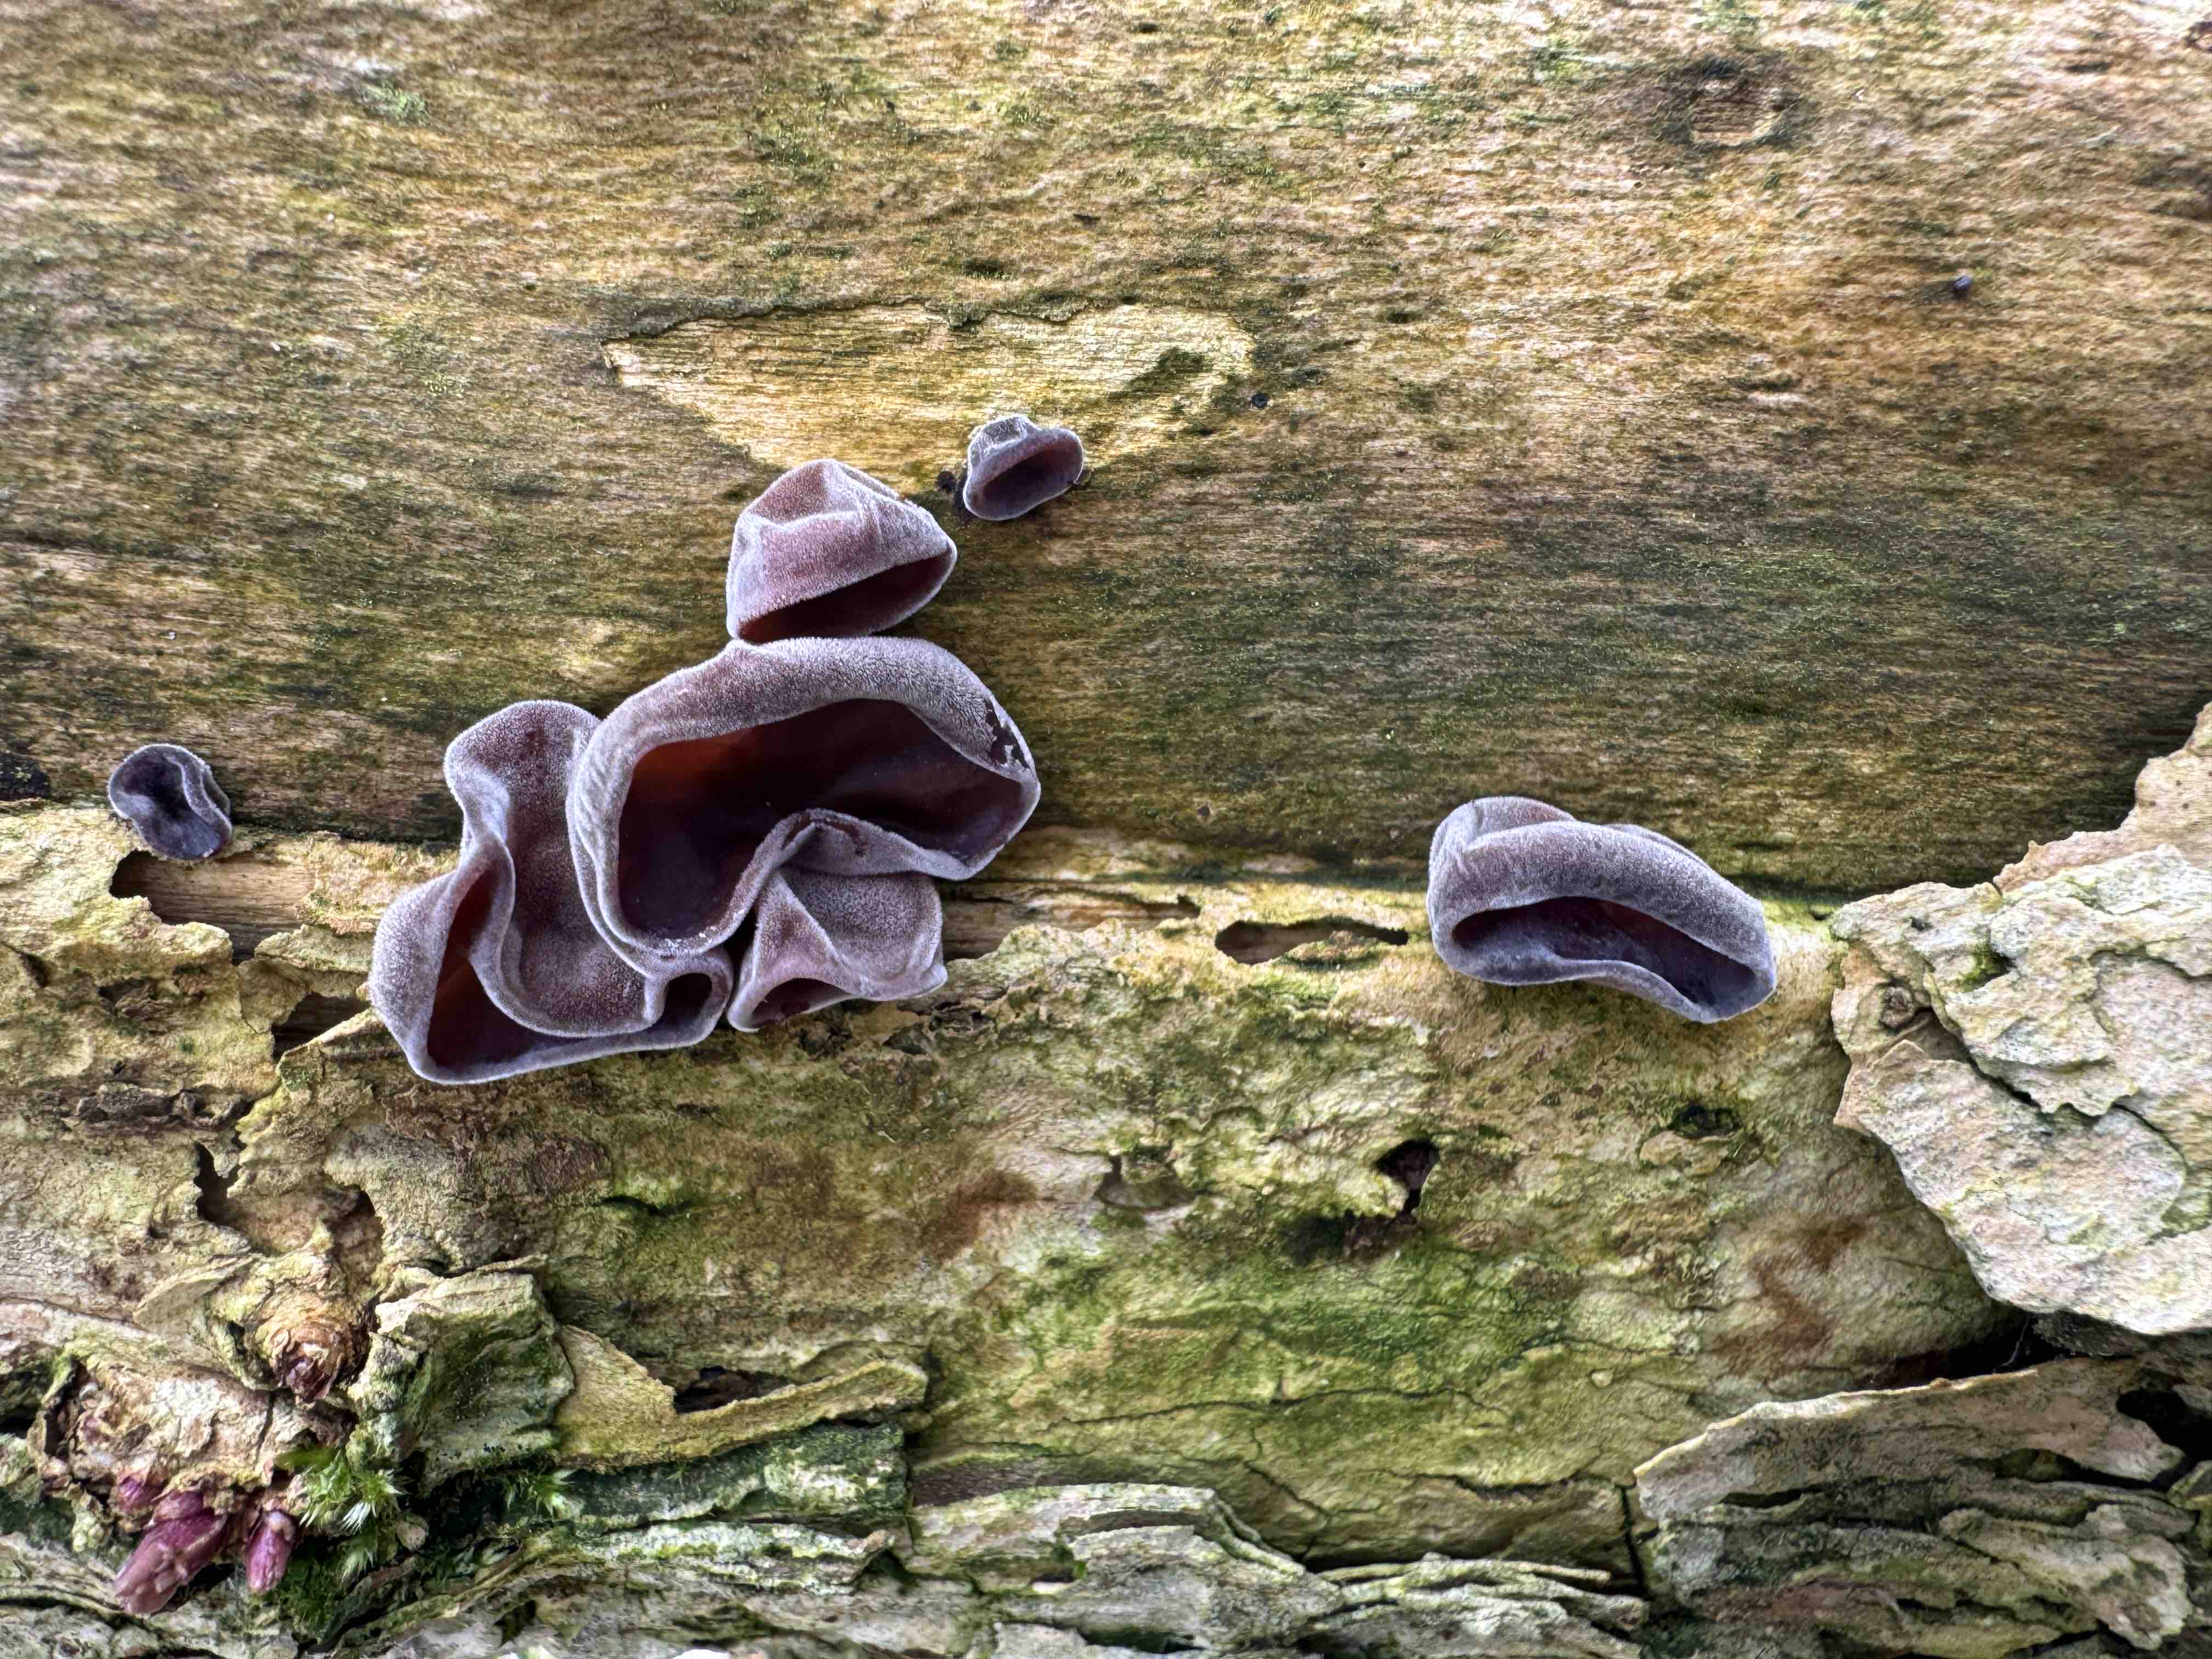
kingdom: Fungi
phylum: Basidiomycota
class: Agaricomycetes
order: Auriculariales
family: Auriculariaceae
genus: Auricularia
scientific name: Auricularia auricula-judae
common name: almindelig judasøre
